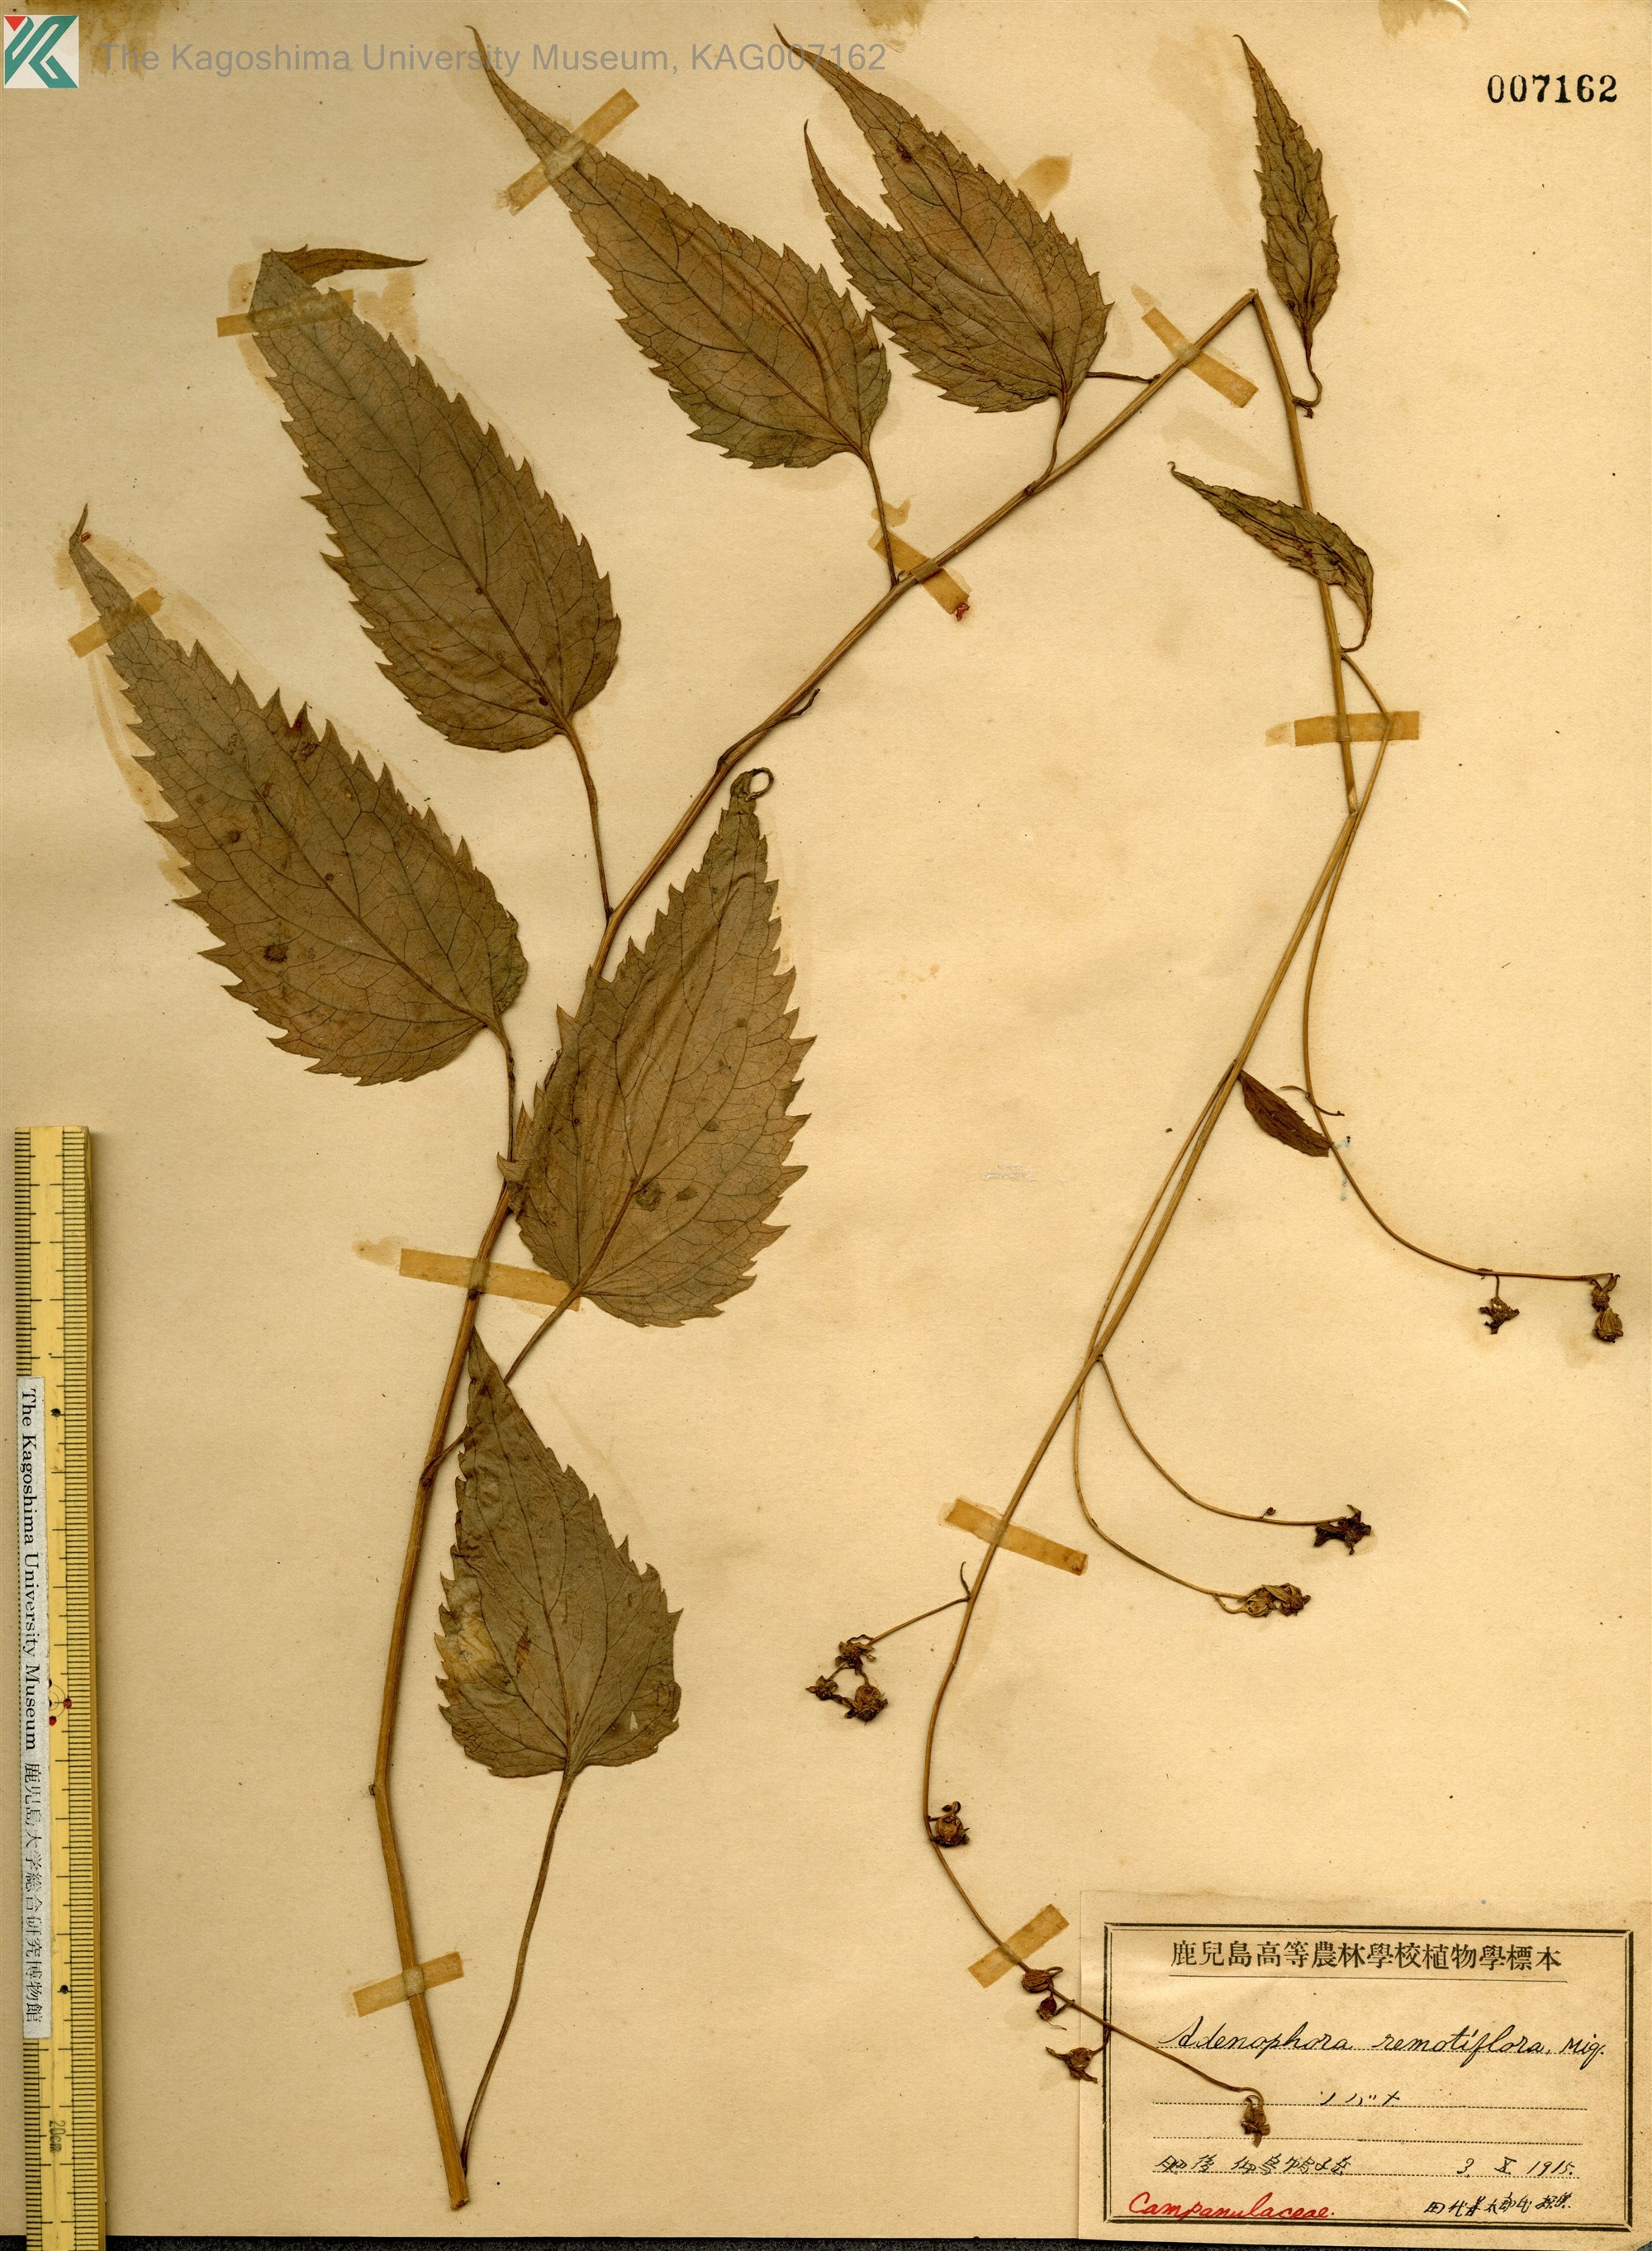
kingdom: Plantae
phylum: Tracheophyta
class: Magnoliopsida
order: Asterales
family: Campanulaceae
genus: Adenophora
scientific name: Adenophora remotiflora
